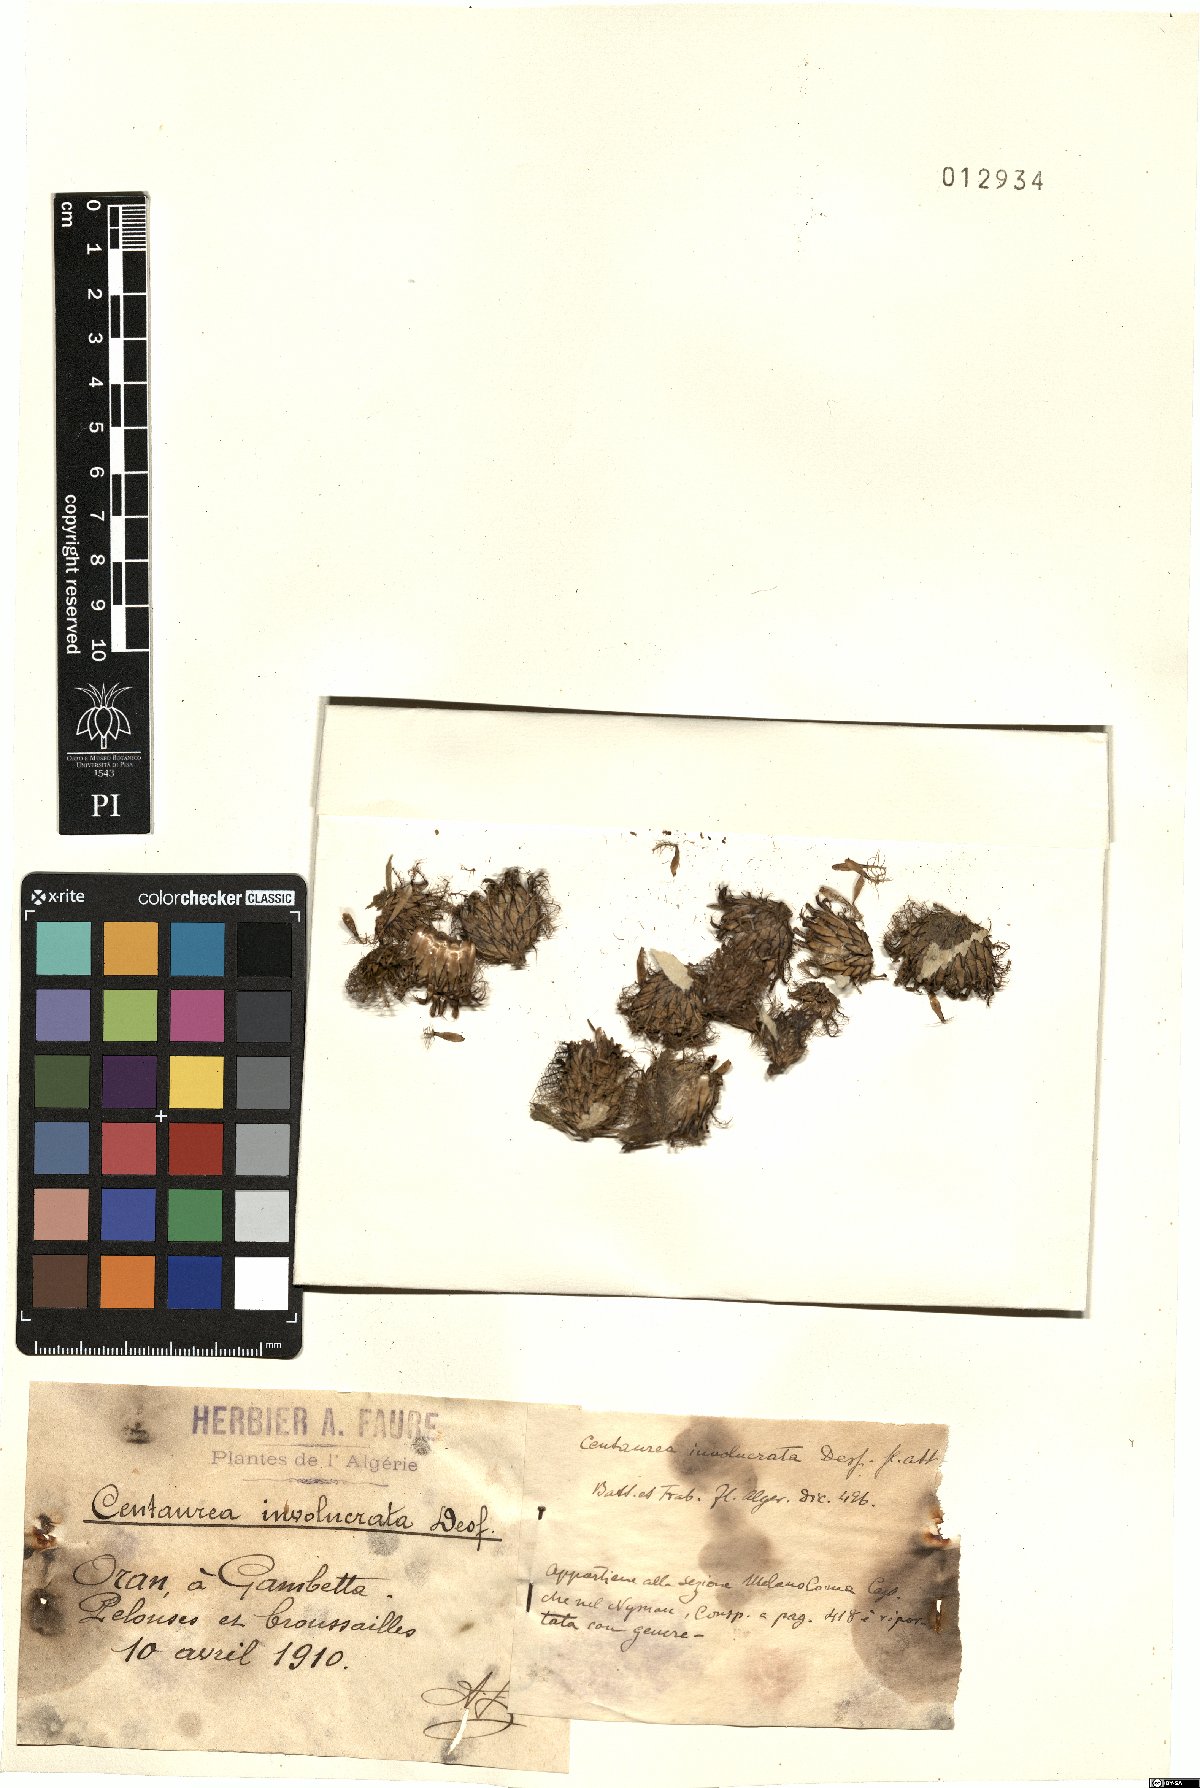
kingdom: Plantae
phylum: Tracheophyta
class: Magnoliopsida
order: Asterales
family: Asteraceae
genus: Centaurea
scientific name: Centaurea involucrata
